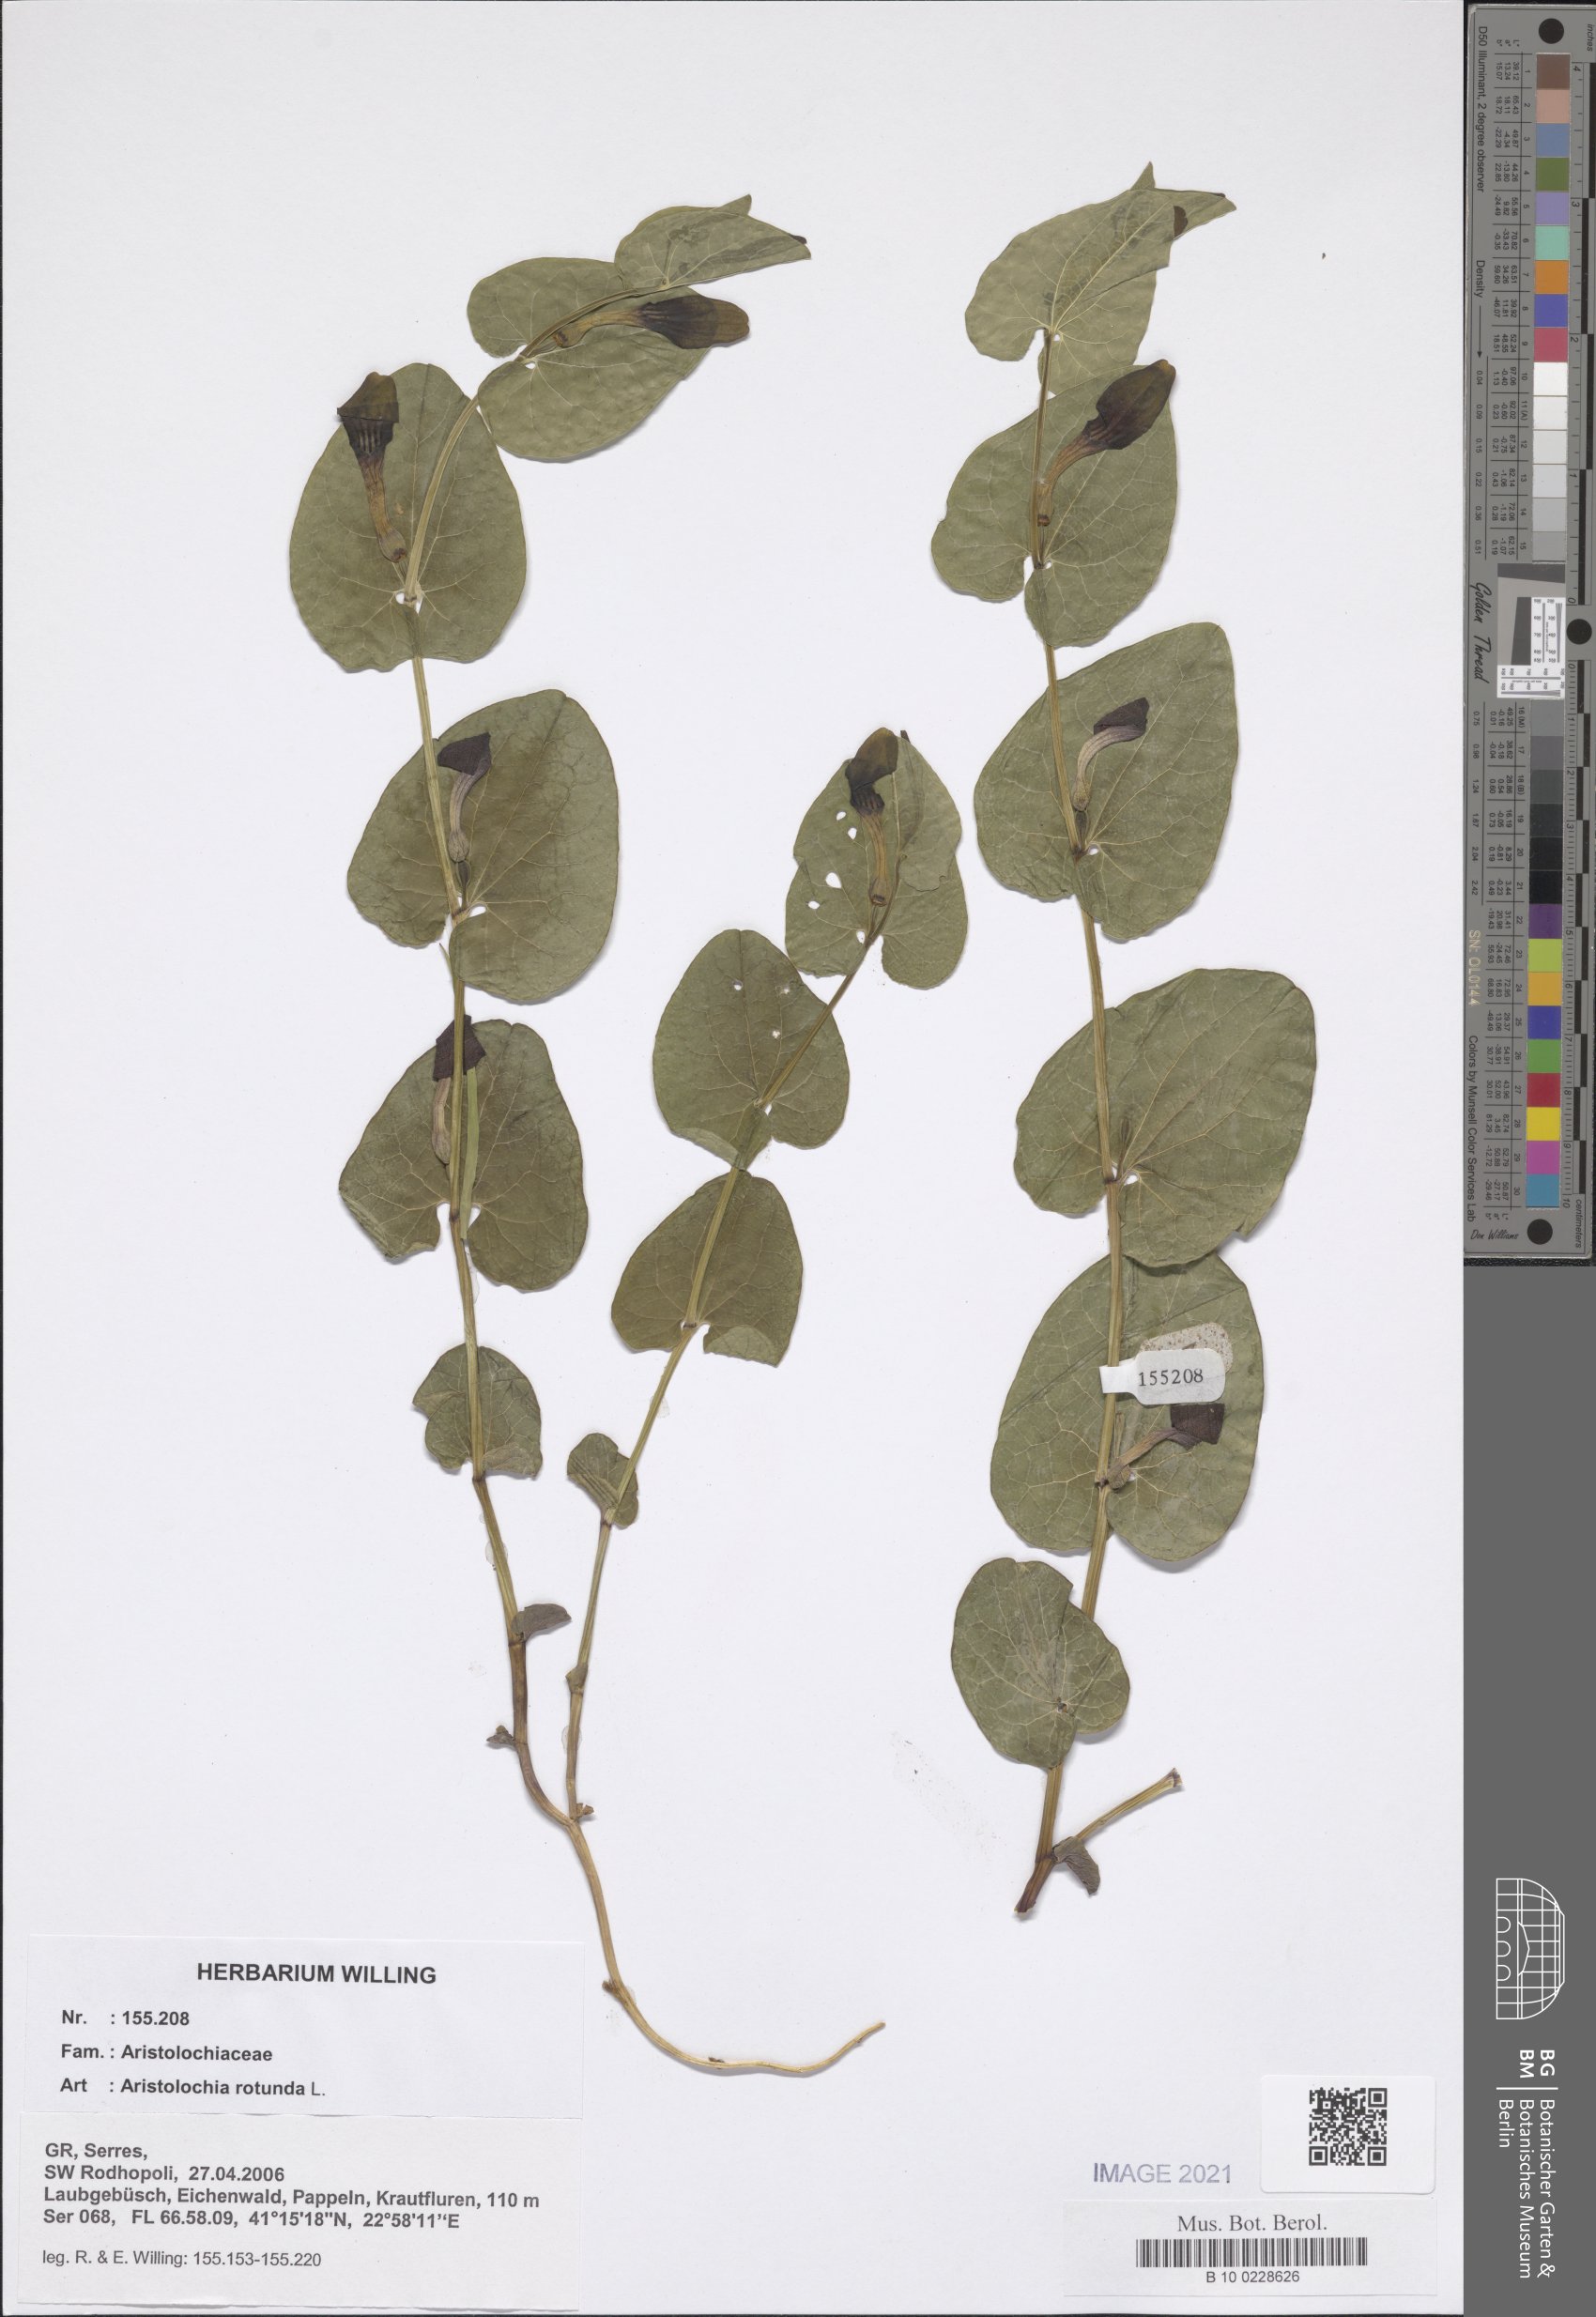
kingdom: Plantae
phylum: Tracheophyta
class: Magnoliopsida
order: Piperales
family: Aristolochiaceae
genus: Aristolochia
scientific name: Aristolochia rotunda
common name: Smearwort
